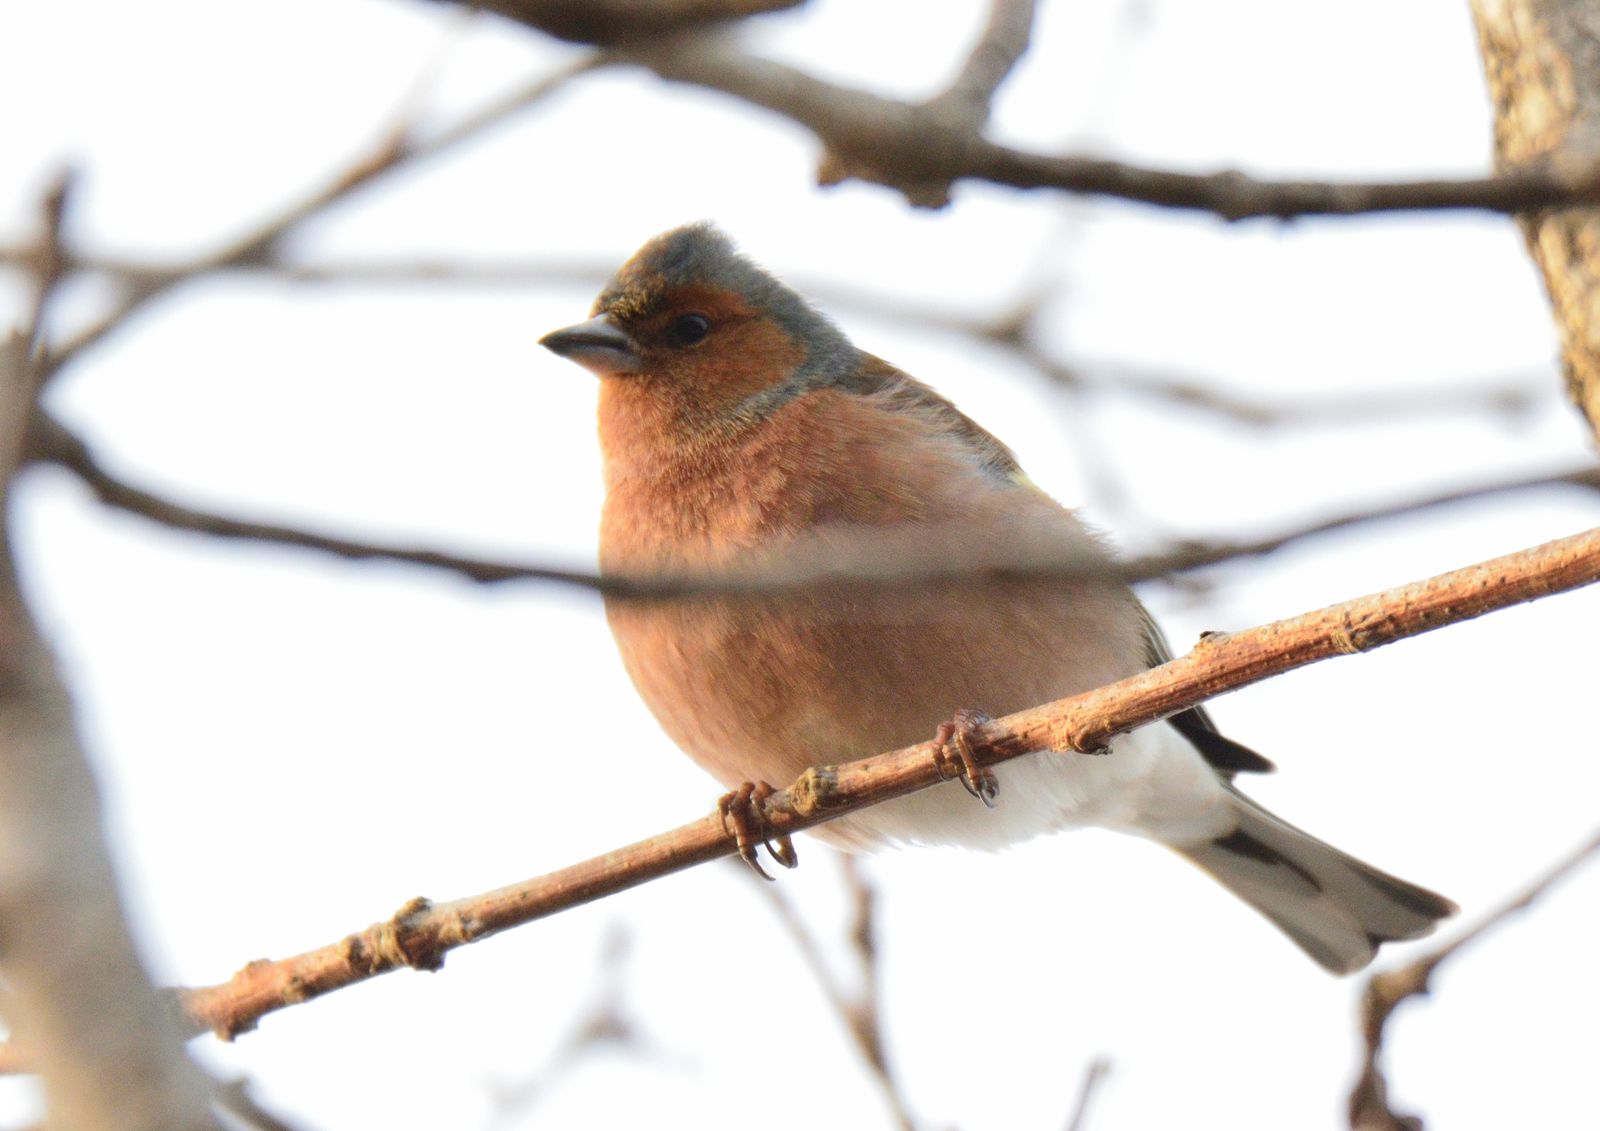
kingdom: Animalia
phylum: Chordata
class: Aves
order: Passeriformes
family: Fringillidae
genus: Fringilla
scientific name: Fringilla coelebs
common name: Common chaffinch
